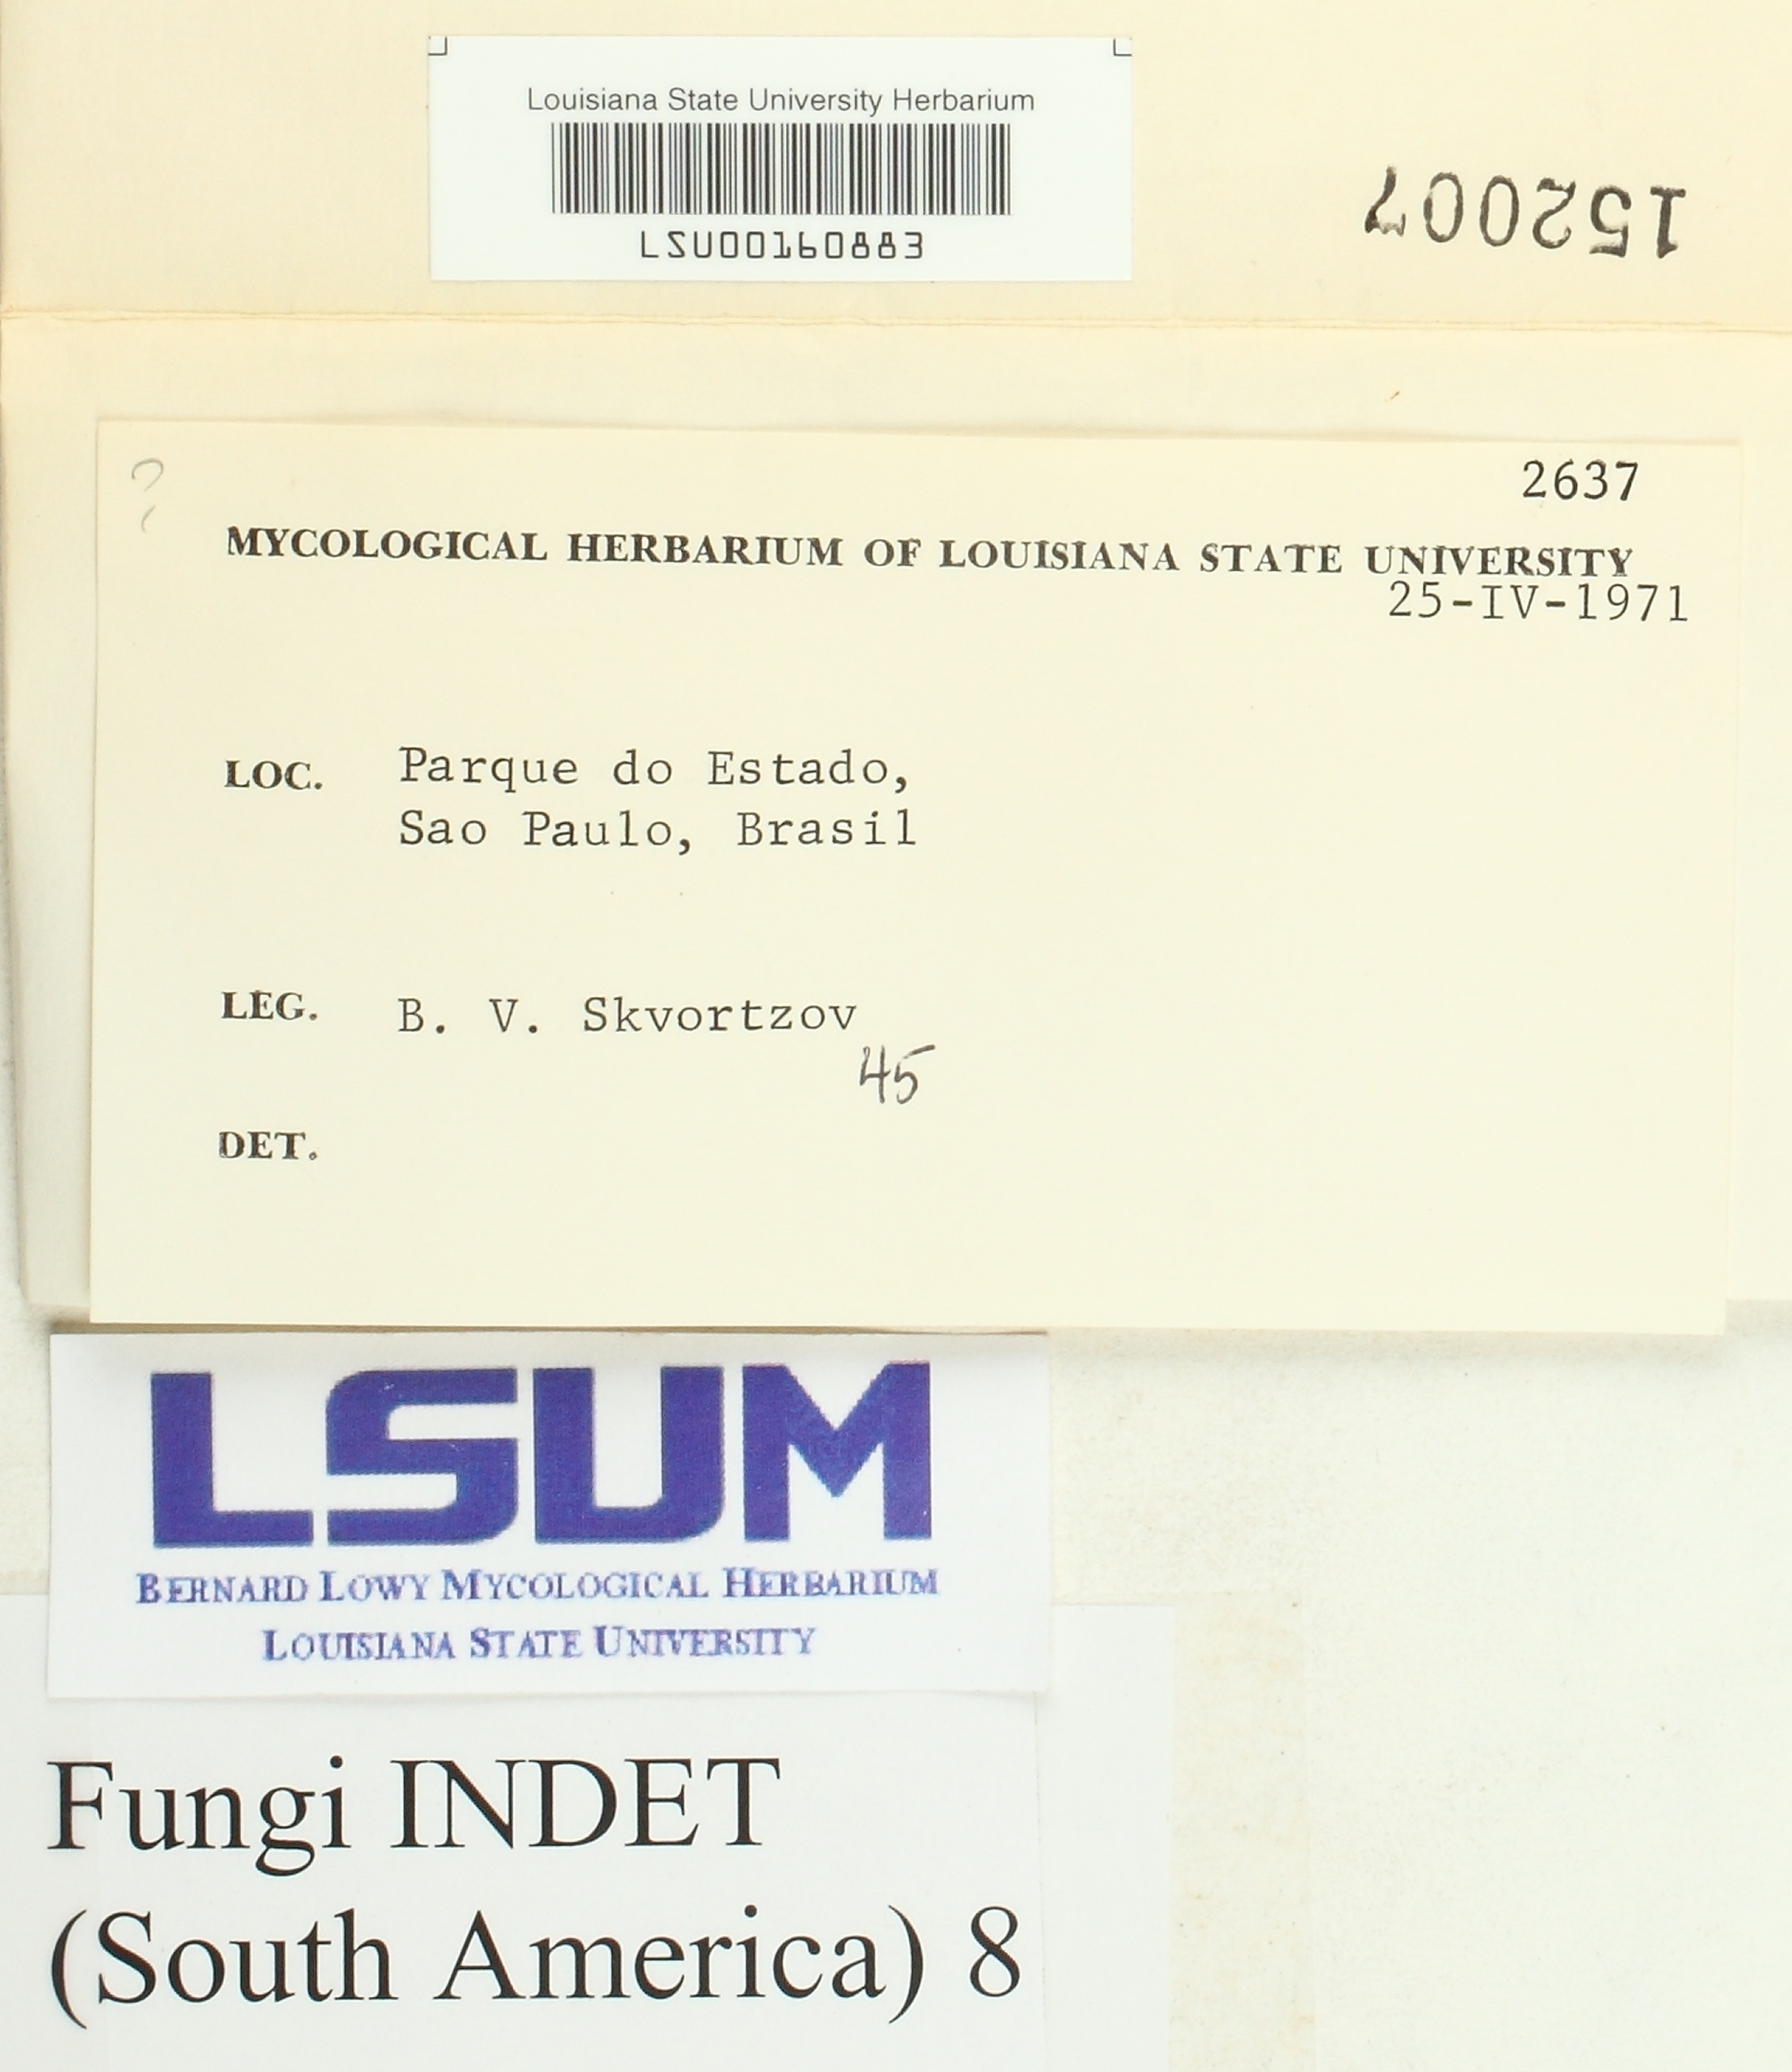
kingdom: Fungi
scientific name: Fungi
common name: Fungi
